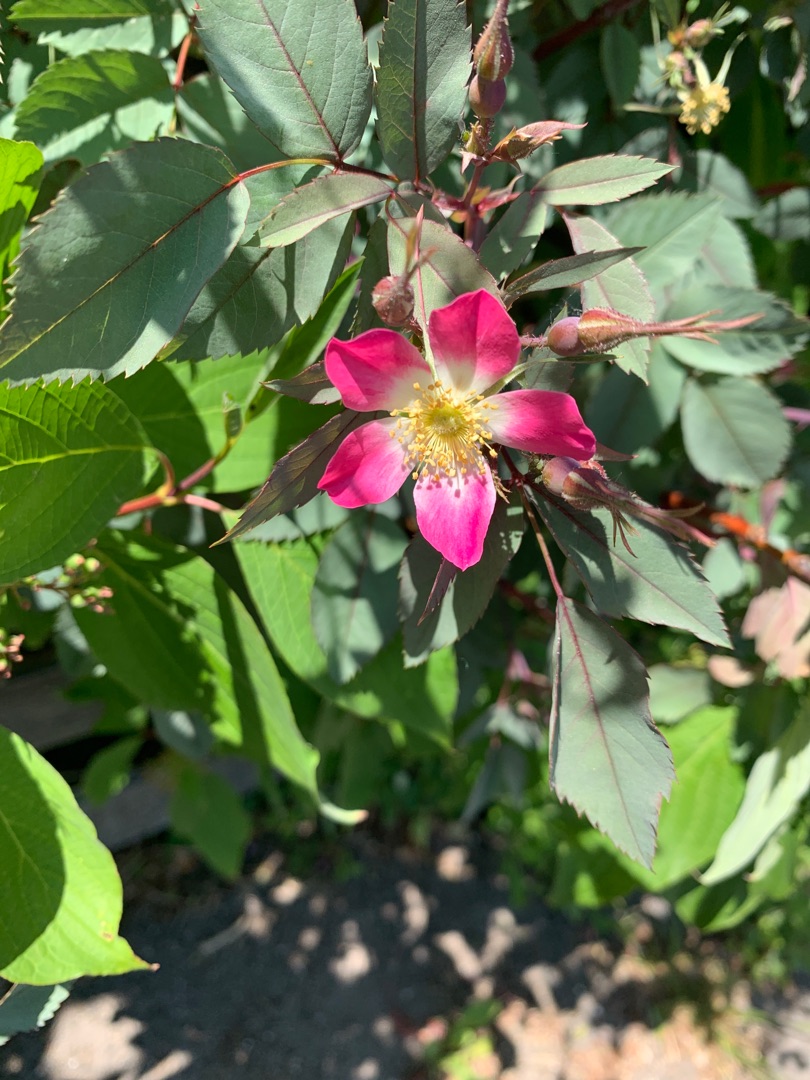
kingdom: Plantae
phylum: Tracheophyta
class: Magnoliopsida
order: Rosales
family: Rosaceae
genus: Rosa
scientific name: Rosa glauca
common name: Kobber-rose
